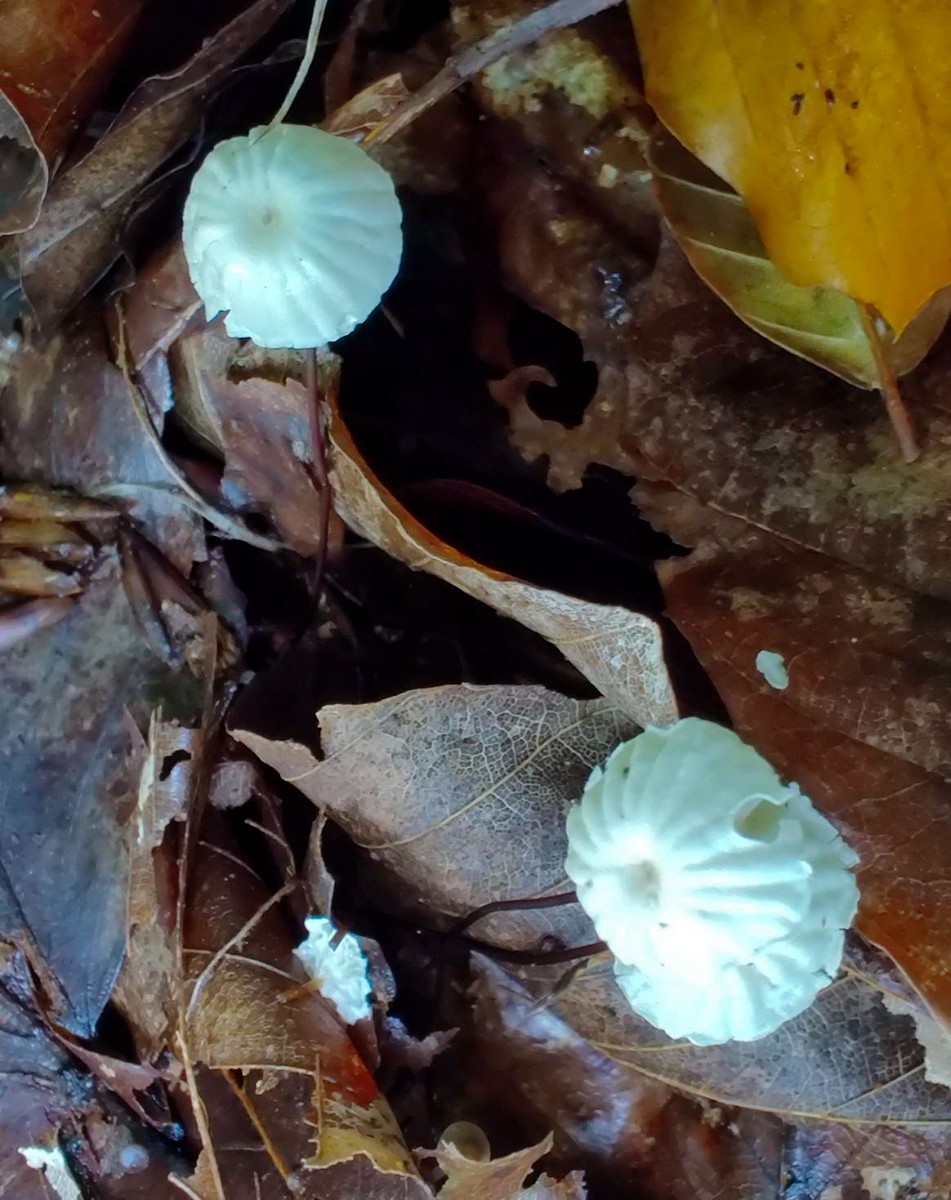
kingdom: Fungi
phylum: Basidiomycota
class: Agaricomycetes
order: Agaricales
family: Marasmiaceae
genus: Marasmius
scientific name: Marasmius rotula
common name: hjul-bruskhat
